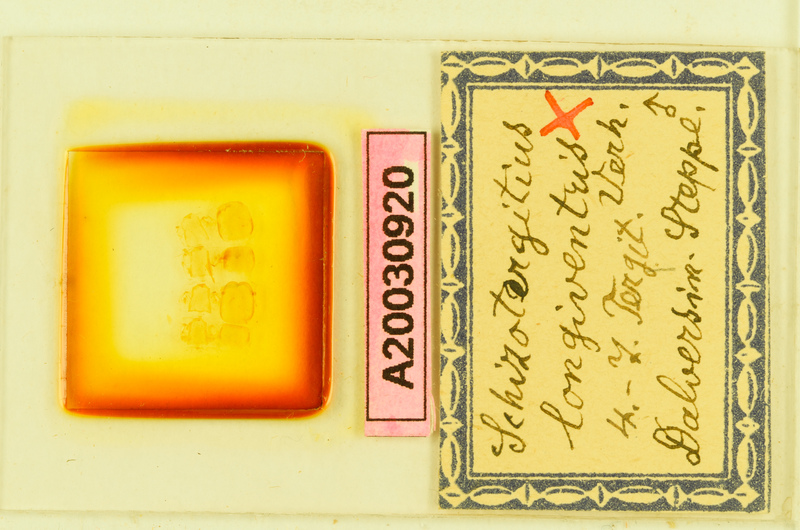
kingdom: Animalia
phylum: Arthropoda
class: Chilopoda
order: Lithobiomorpha
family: Lithobiidae
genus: Schizotergitius
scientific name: Schizotergitius longiventris
